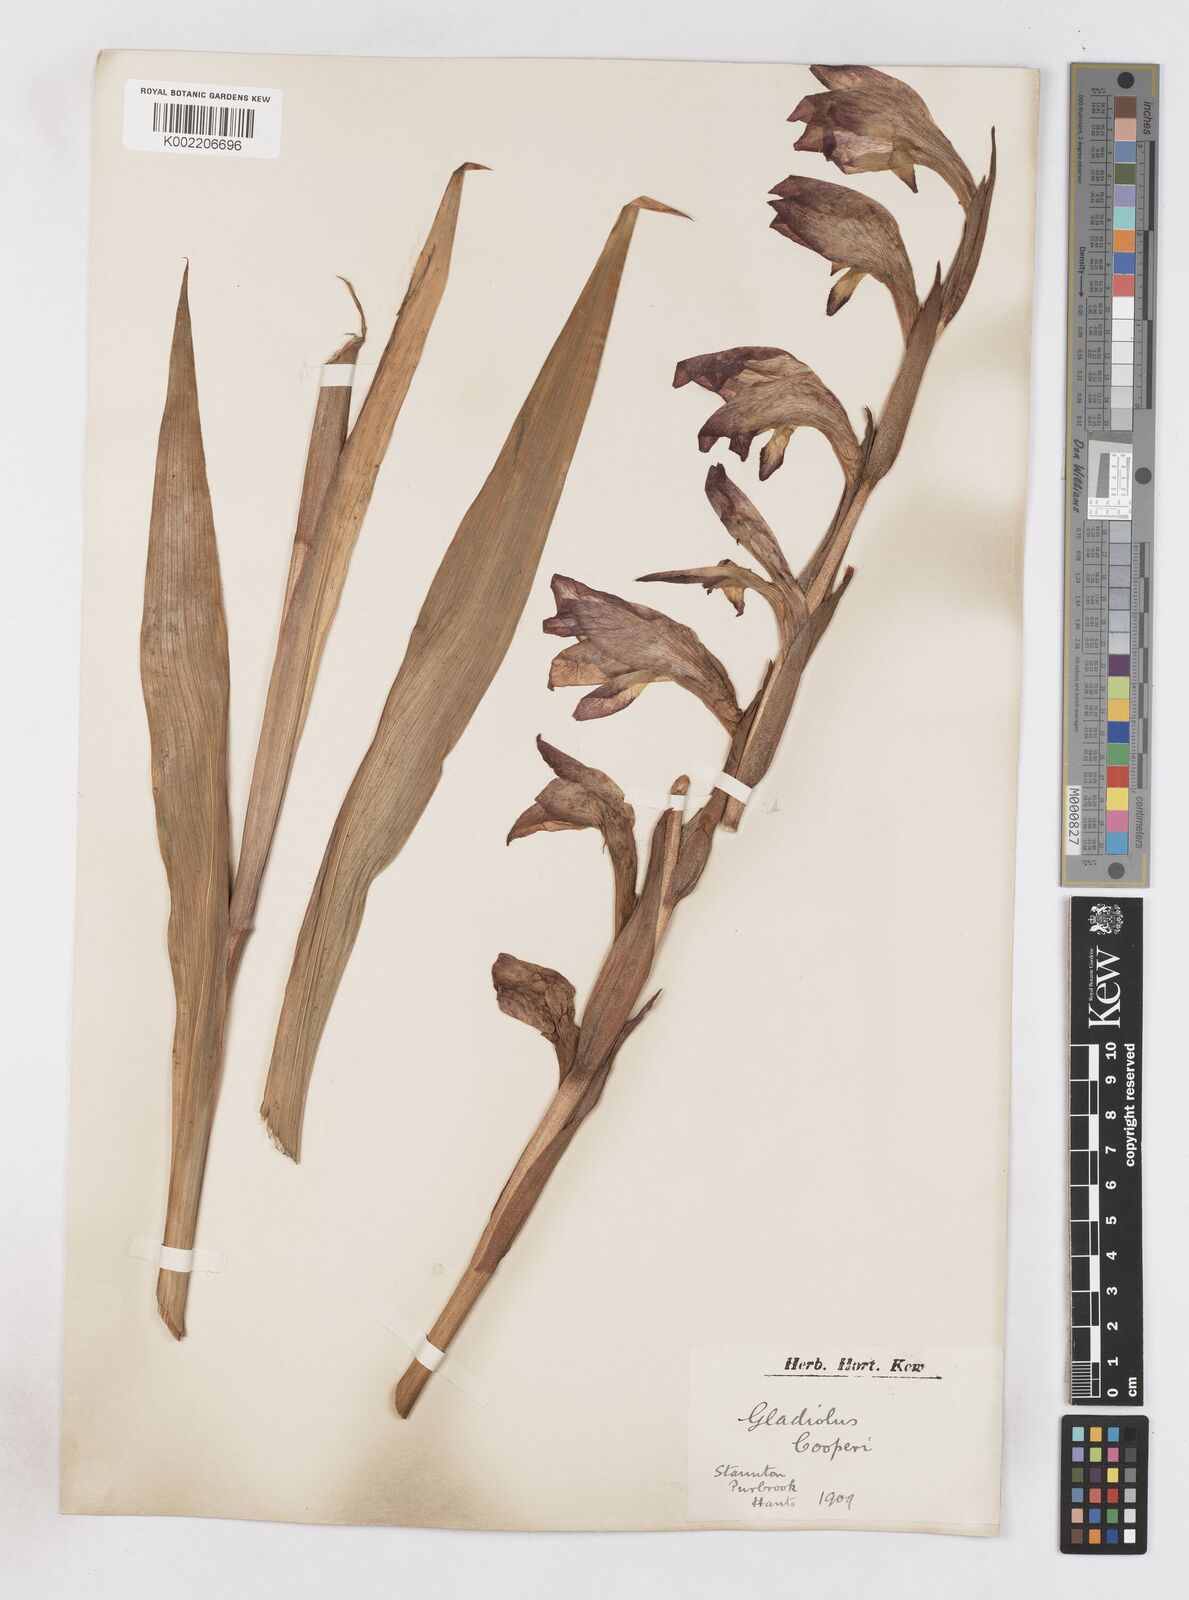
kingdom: Plantae
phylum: Tracheophyta
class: Liliopsida
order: Asparagales
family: Iridaceae
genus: Gladiolus
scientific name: Gladiolus dalenii
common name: Cornflag
